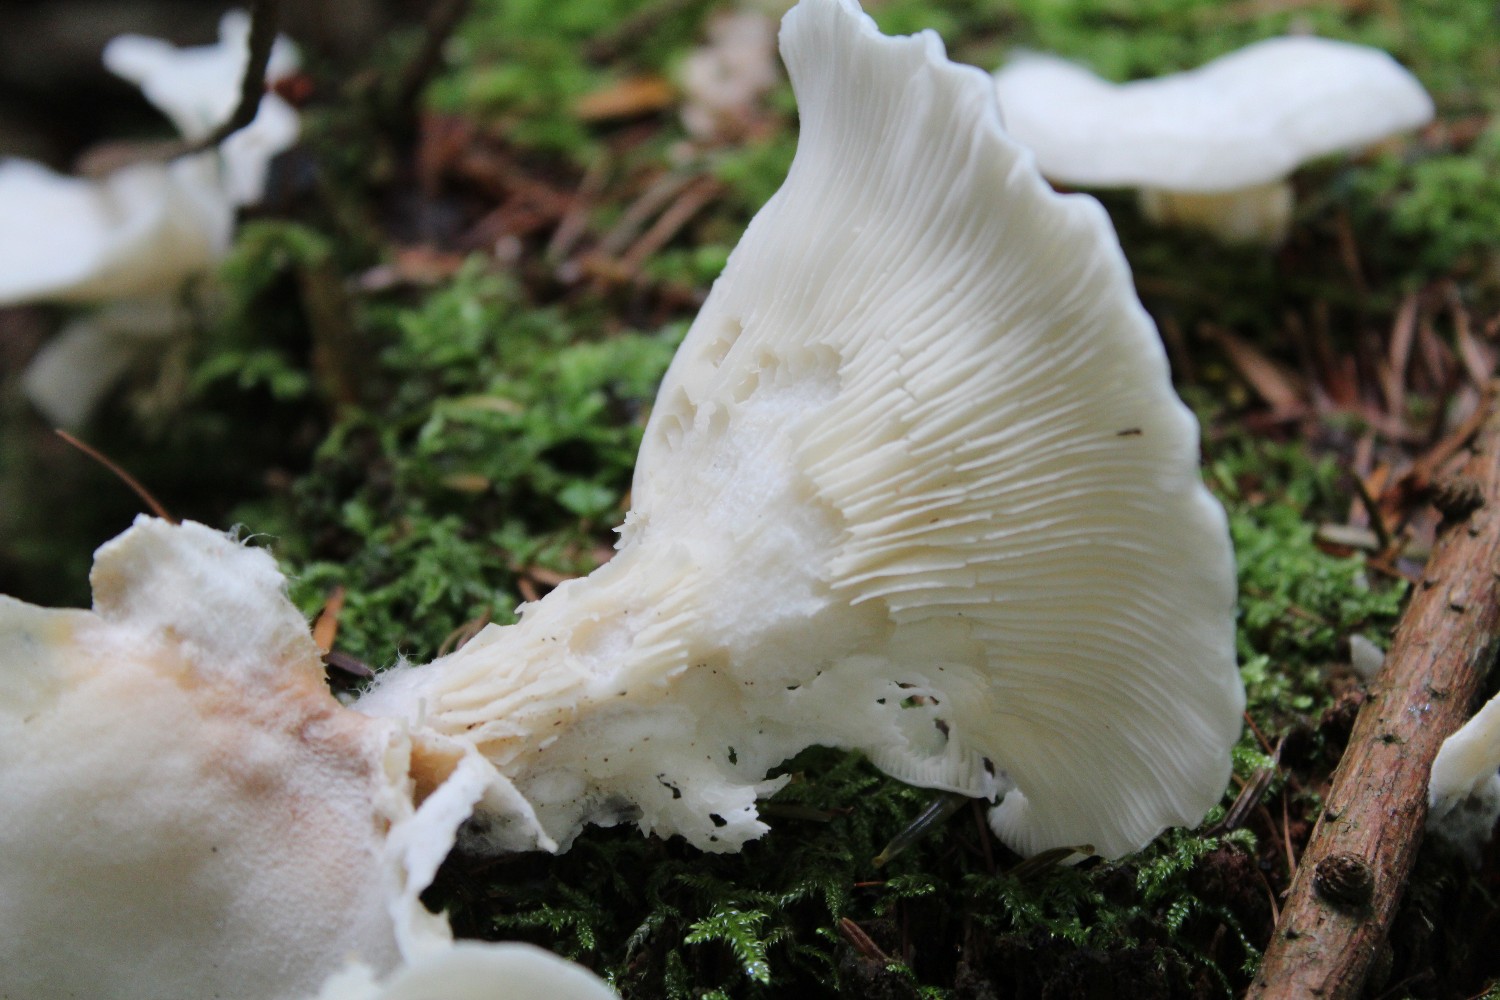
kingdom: Fungi
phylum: Basidiomycota
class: Agaricomycetes
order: Agaricales
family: Marasmiaceae
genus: Pleurocybella
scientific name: Pleurocybella porrigens
